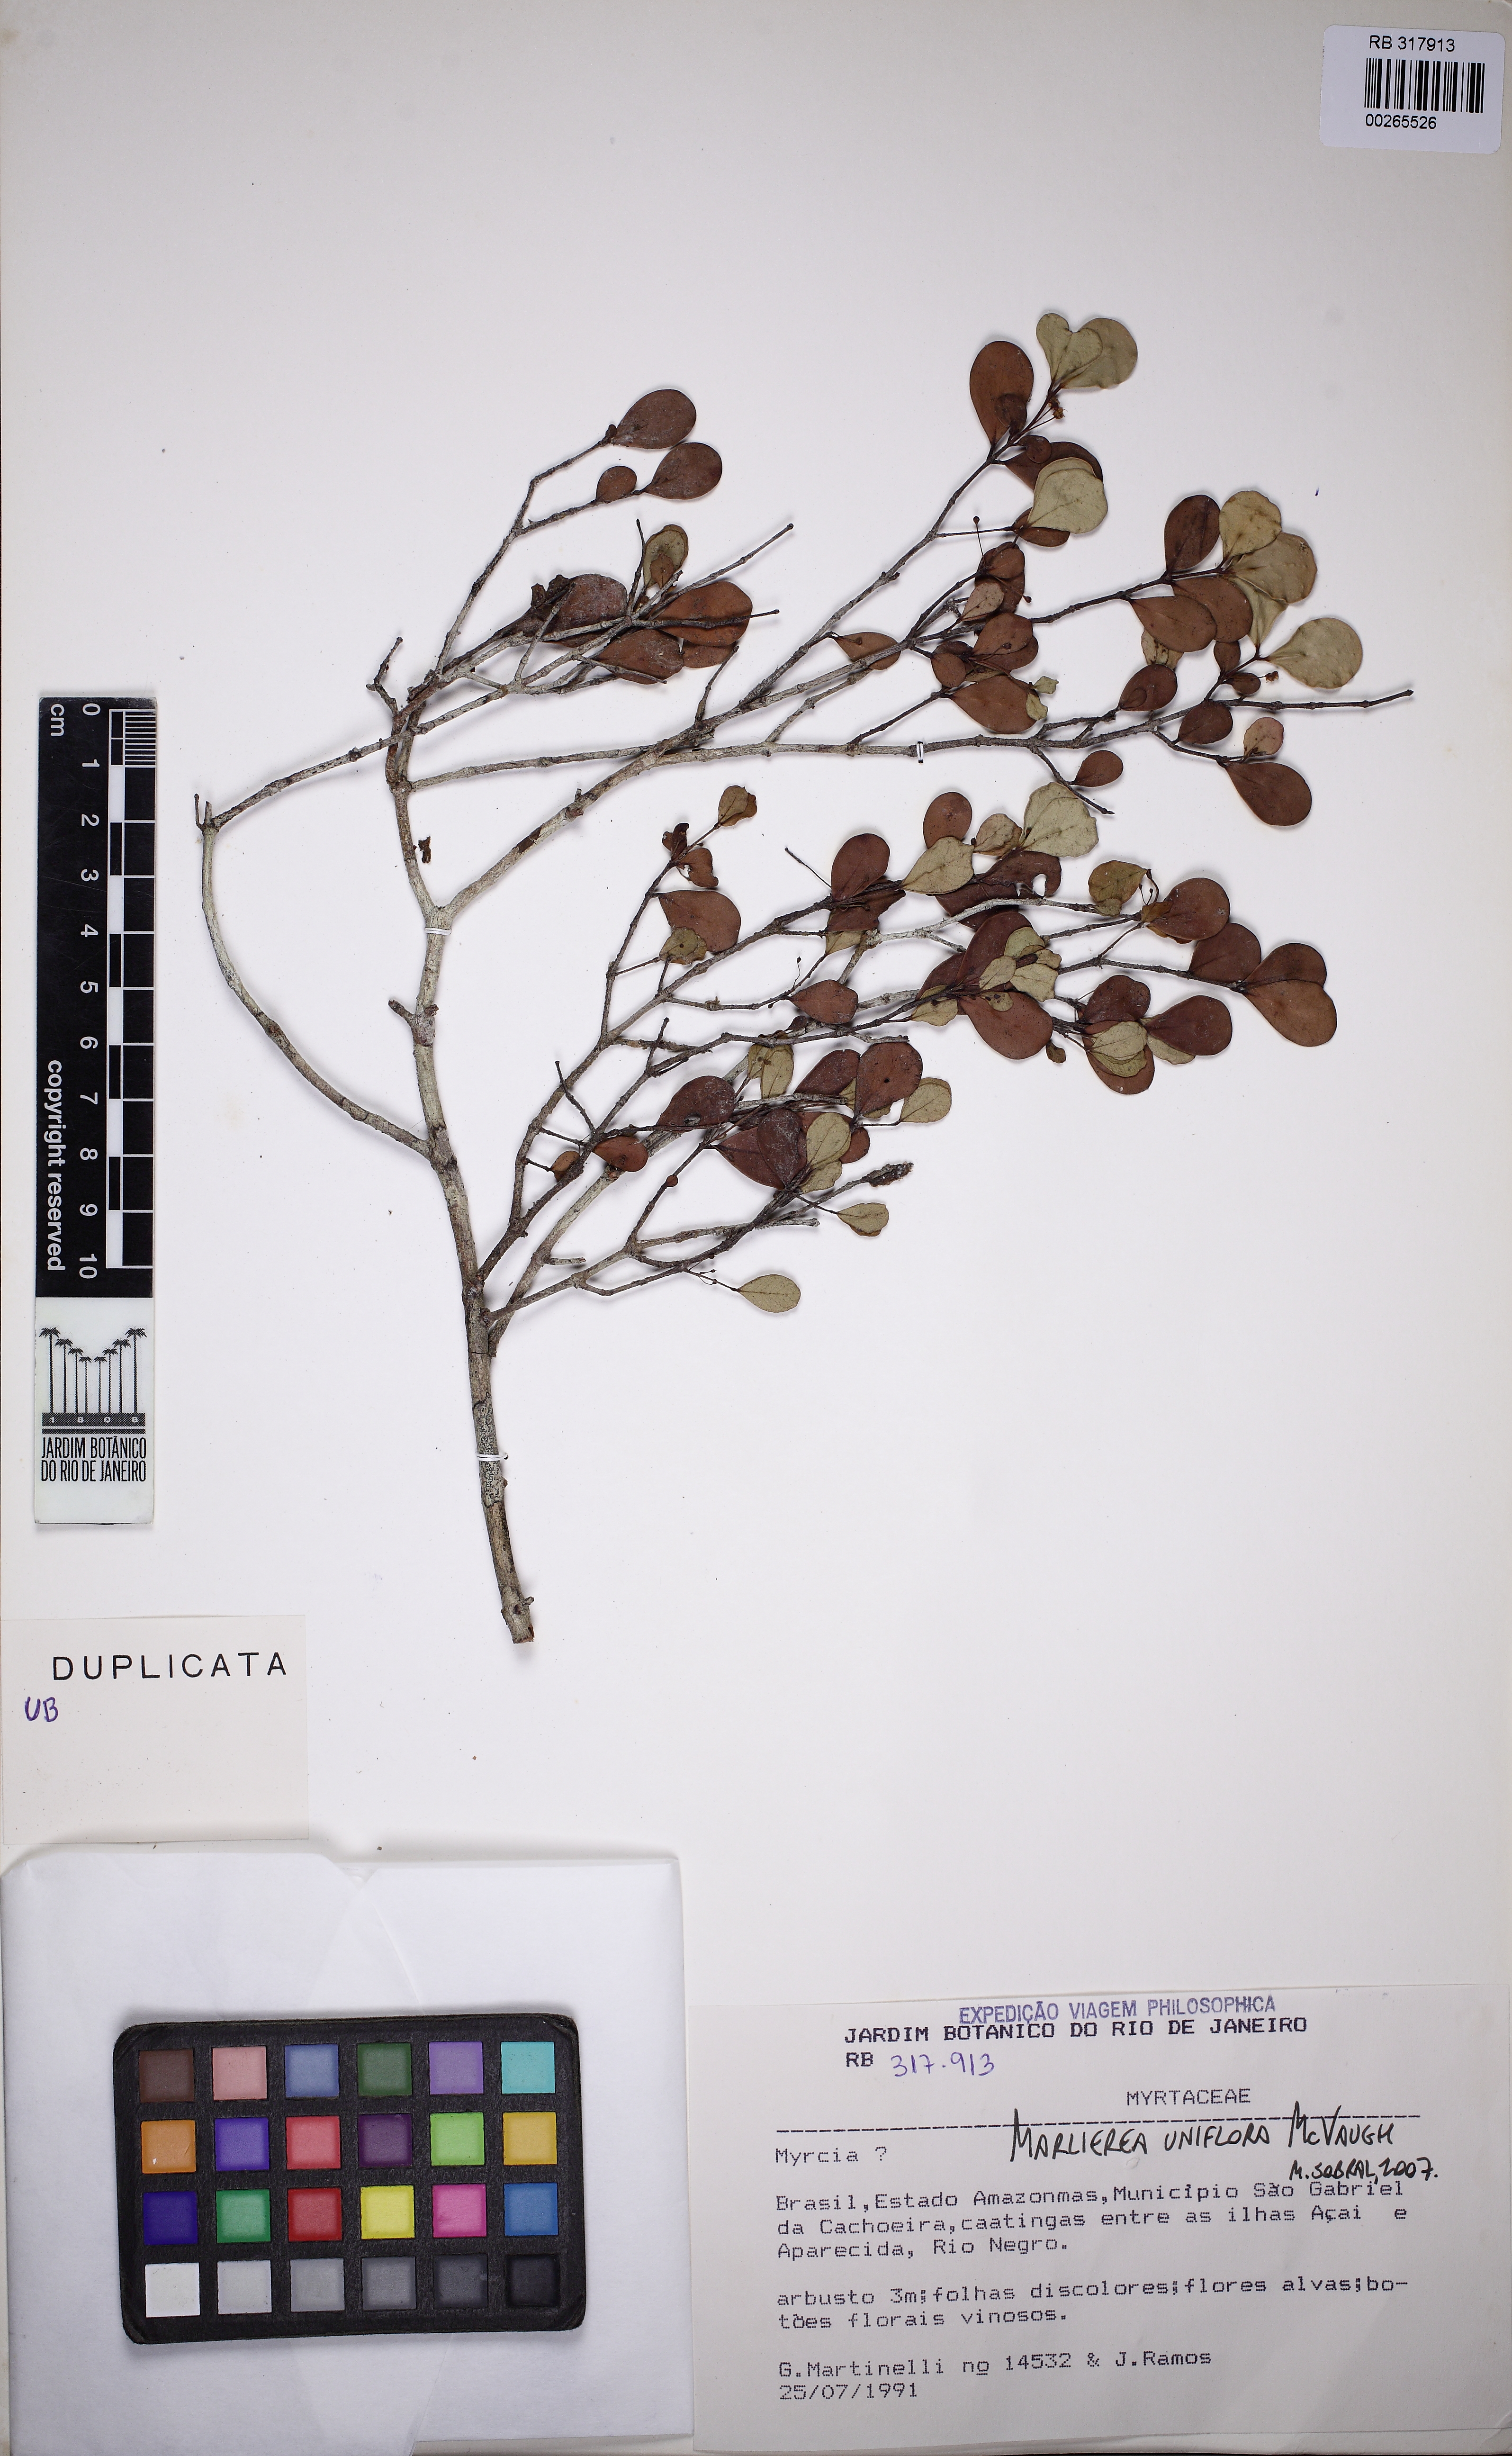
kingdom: Plantae
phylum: Tracheophyta
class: Magnoliopsida
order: Myrtales
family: Myrtaceae
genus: Myrcia
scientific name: Myrcia uniflora
